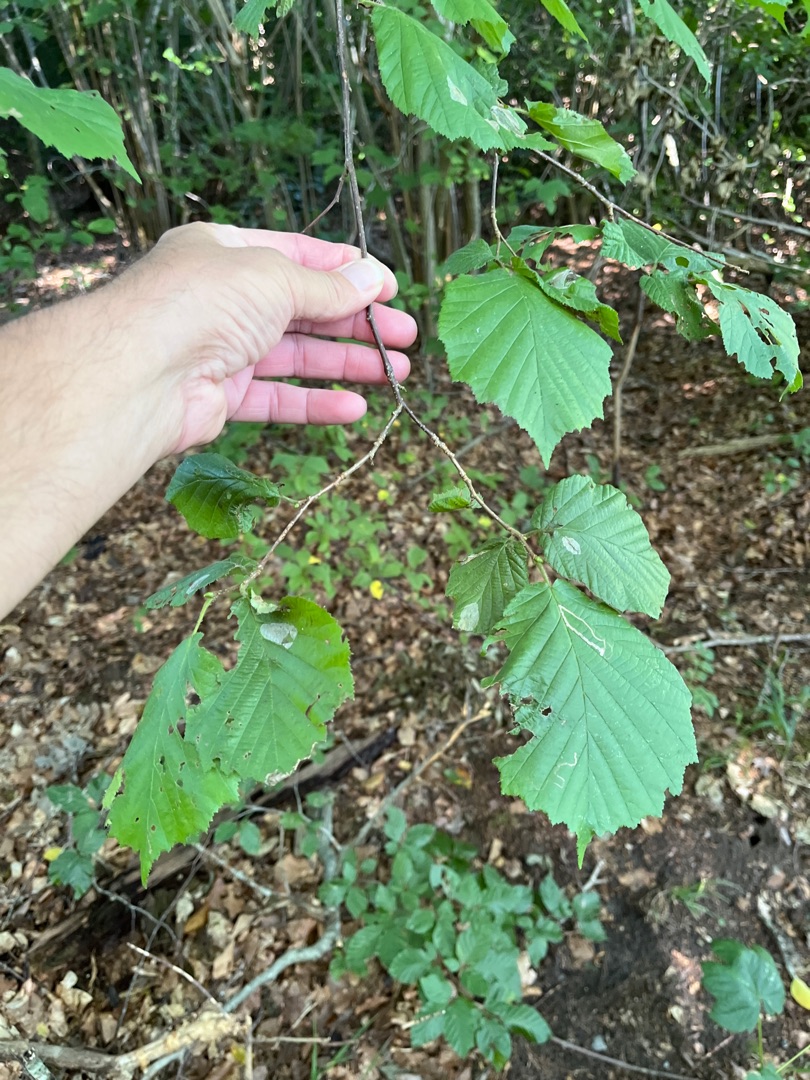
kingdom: Plantae
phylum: Tracheophyta
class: Magnoliopsida
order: Fagales
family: Betulaceae
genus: Corylus
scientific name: Corylus avellana
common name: Hassel
